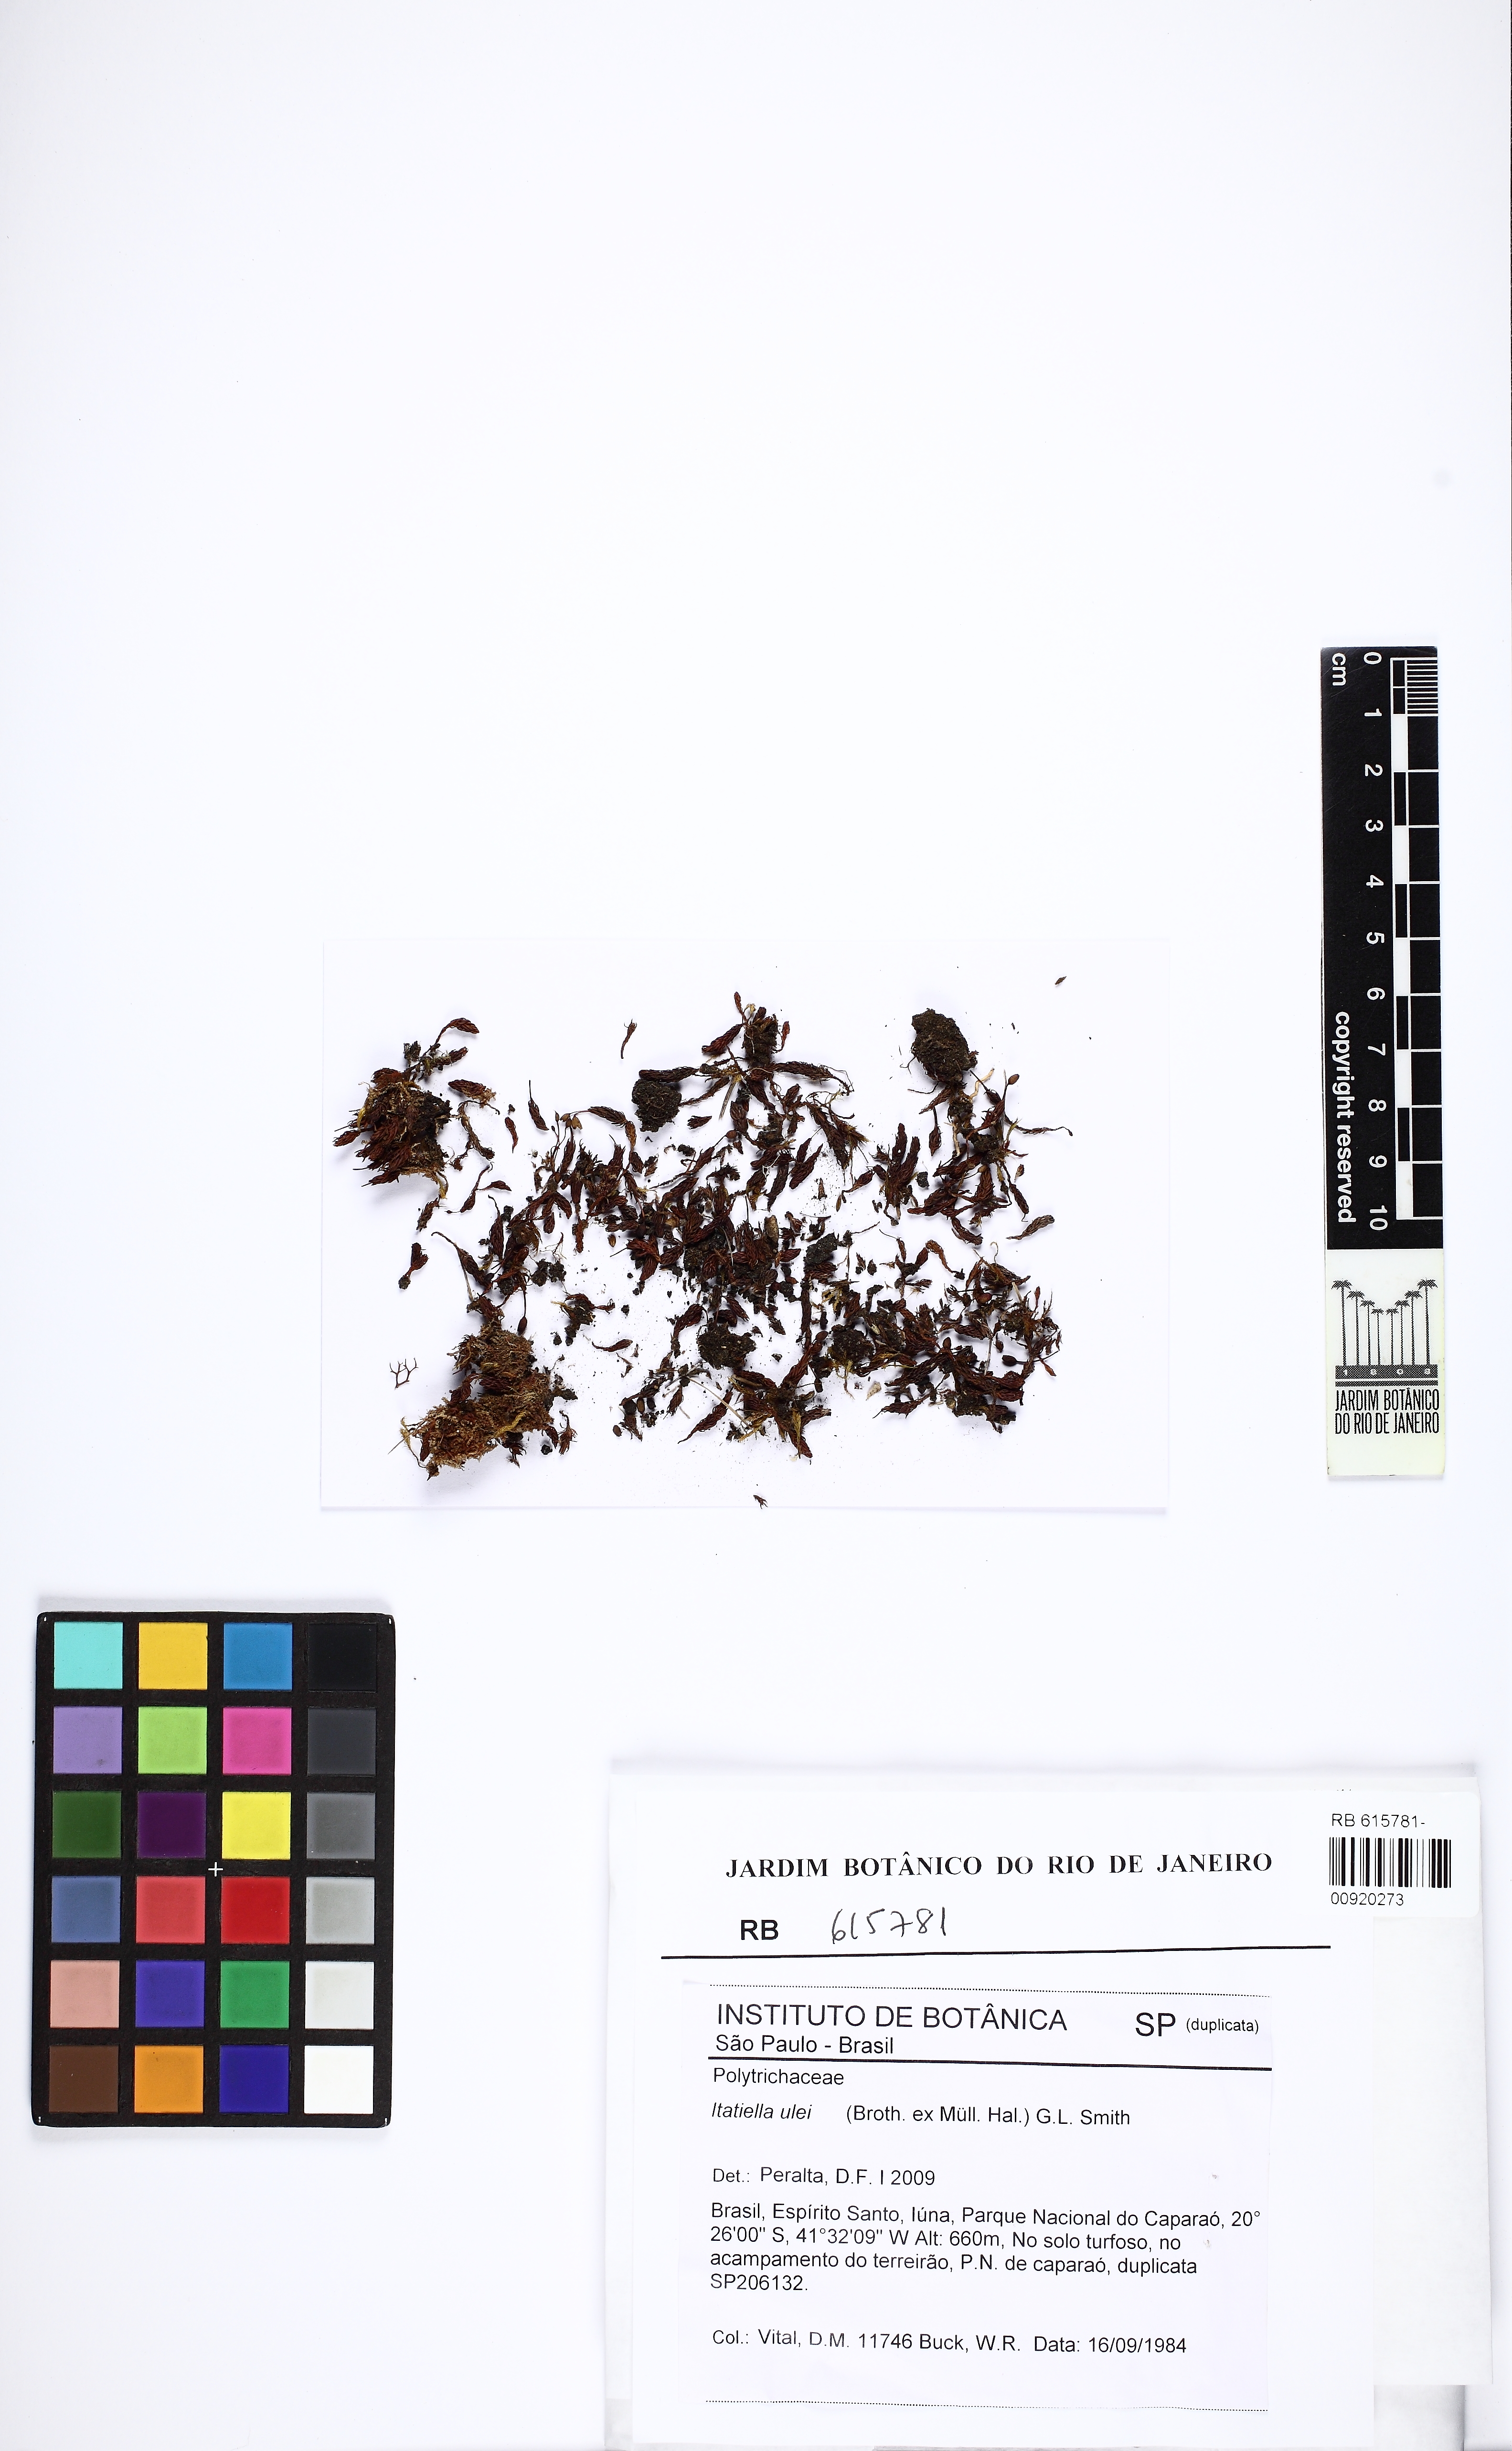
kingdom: Plantae
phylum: Bryophyta
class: Polytrichopsida
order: Polytrichales
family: Polytrichaceae
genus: Itatiella
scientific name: Itatiella ulei
